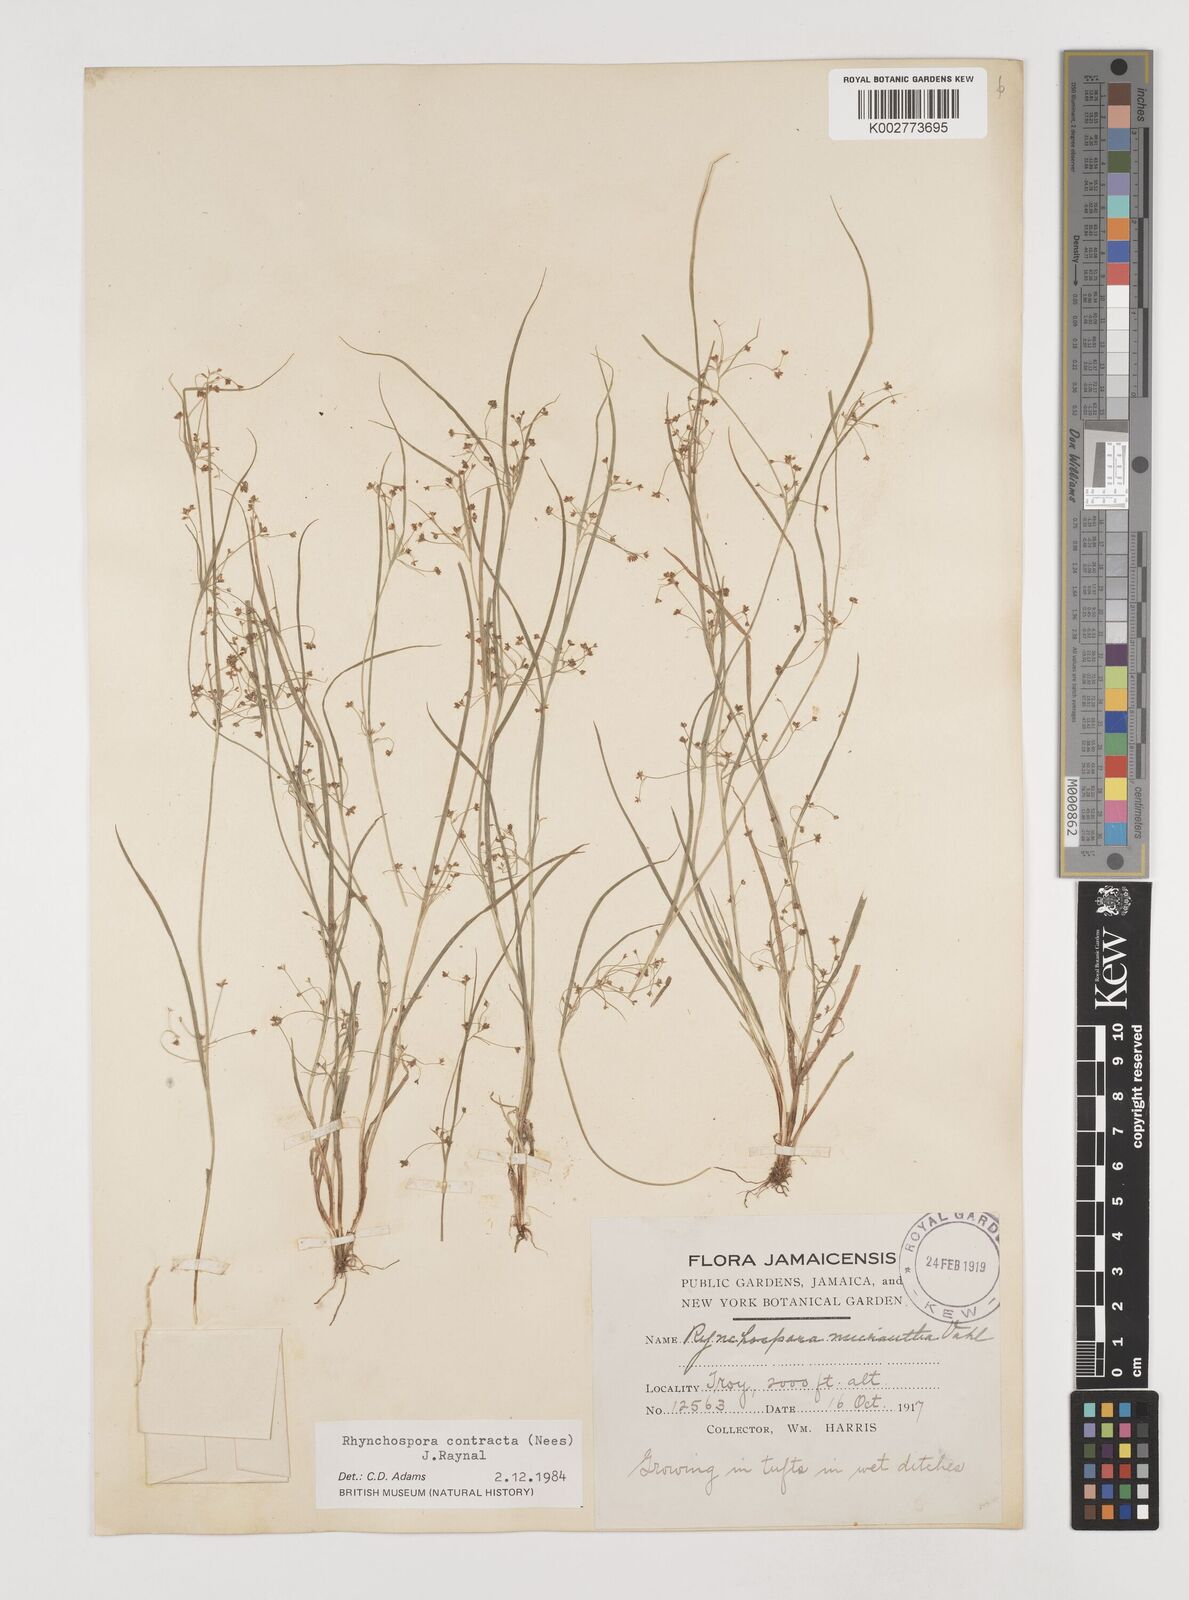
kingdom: Plantae
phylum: Tracheophyta
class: Liliopsida
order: Poales
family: Cyperaceae
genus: Rhynchospora
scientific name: Rhynchospora contracta
